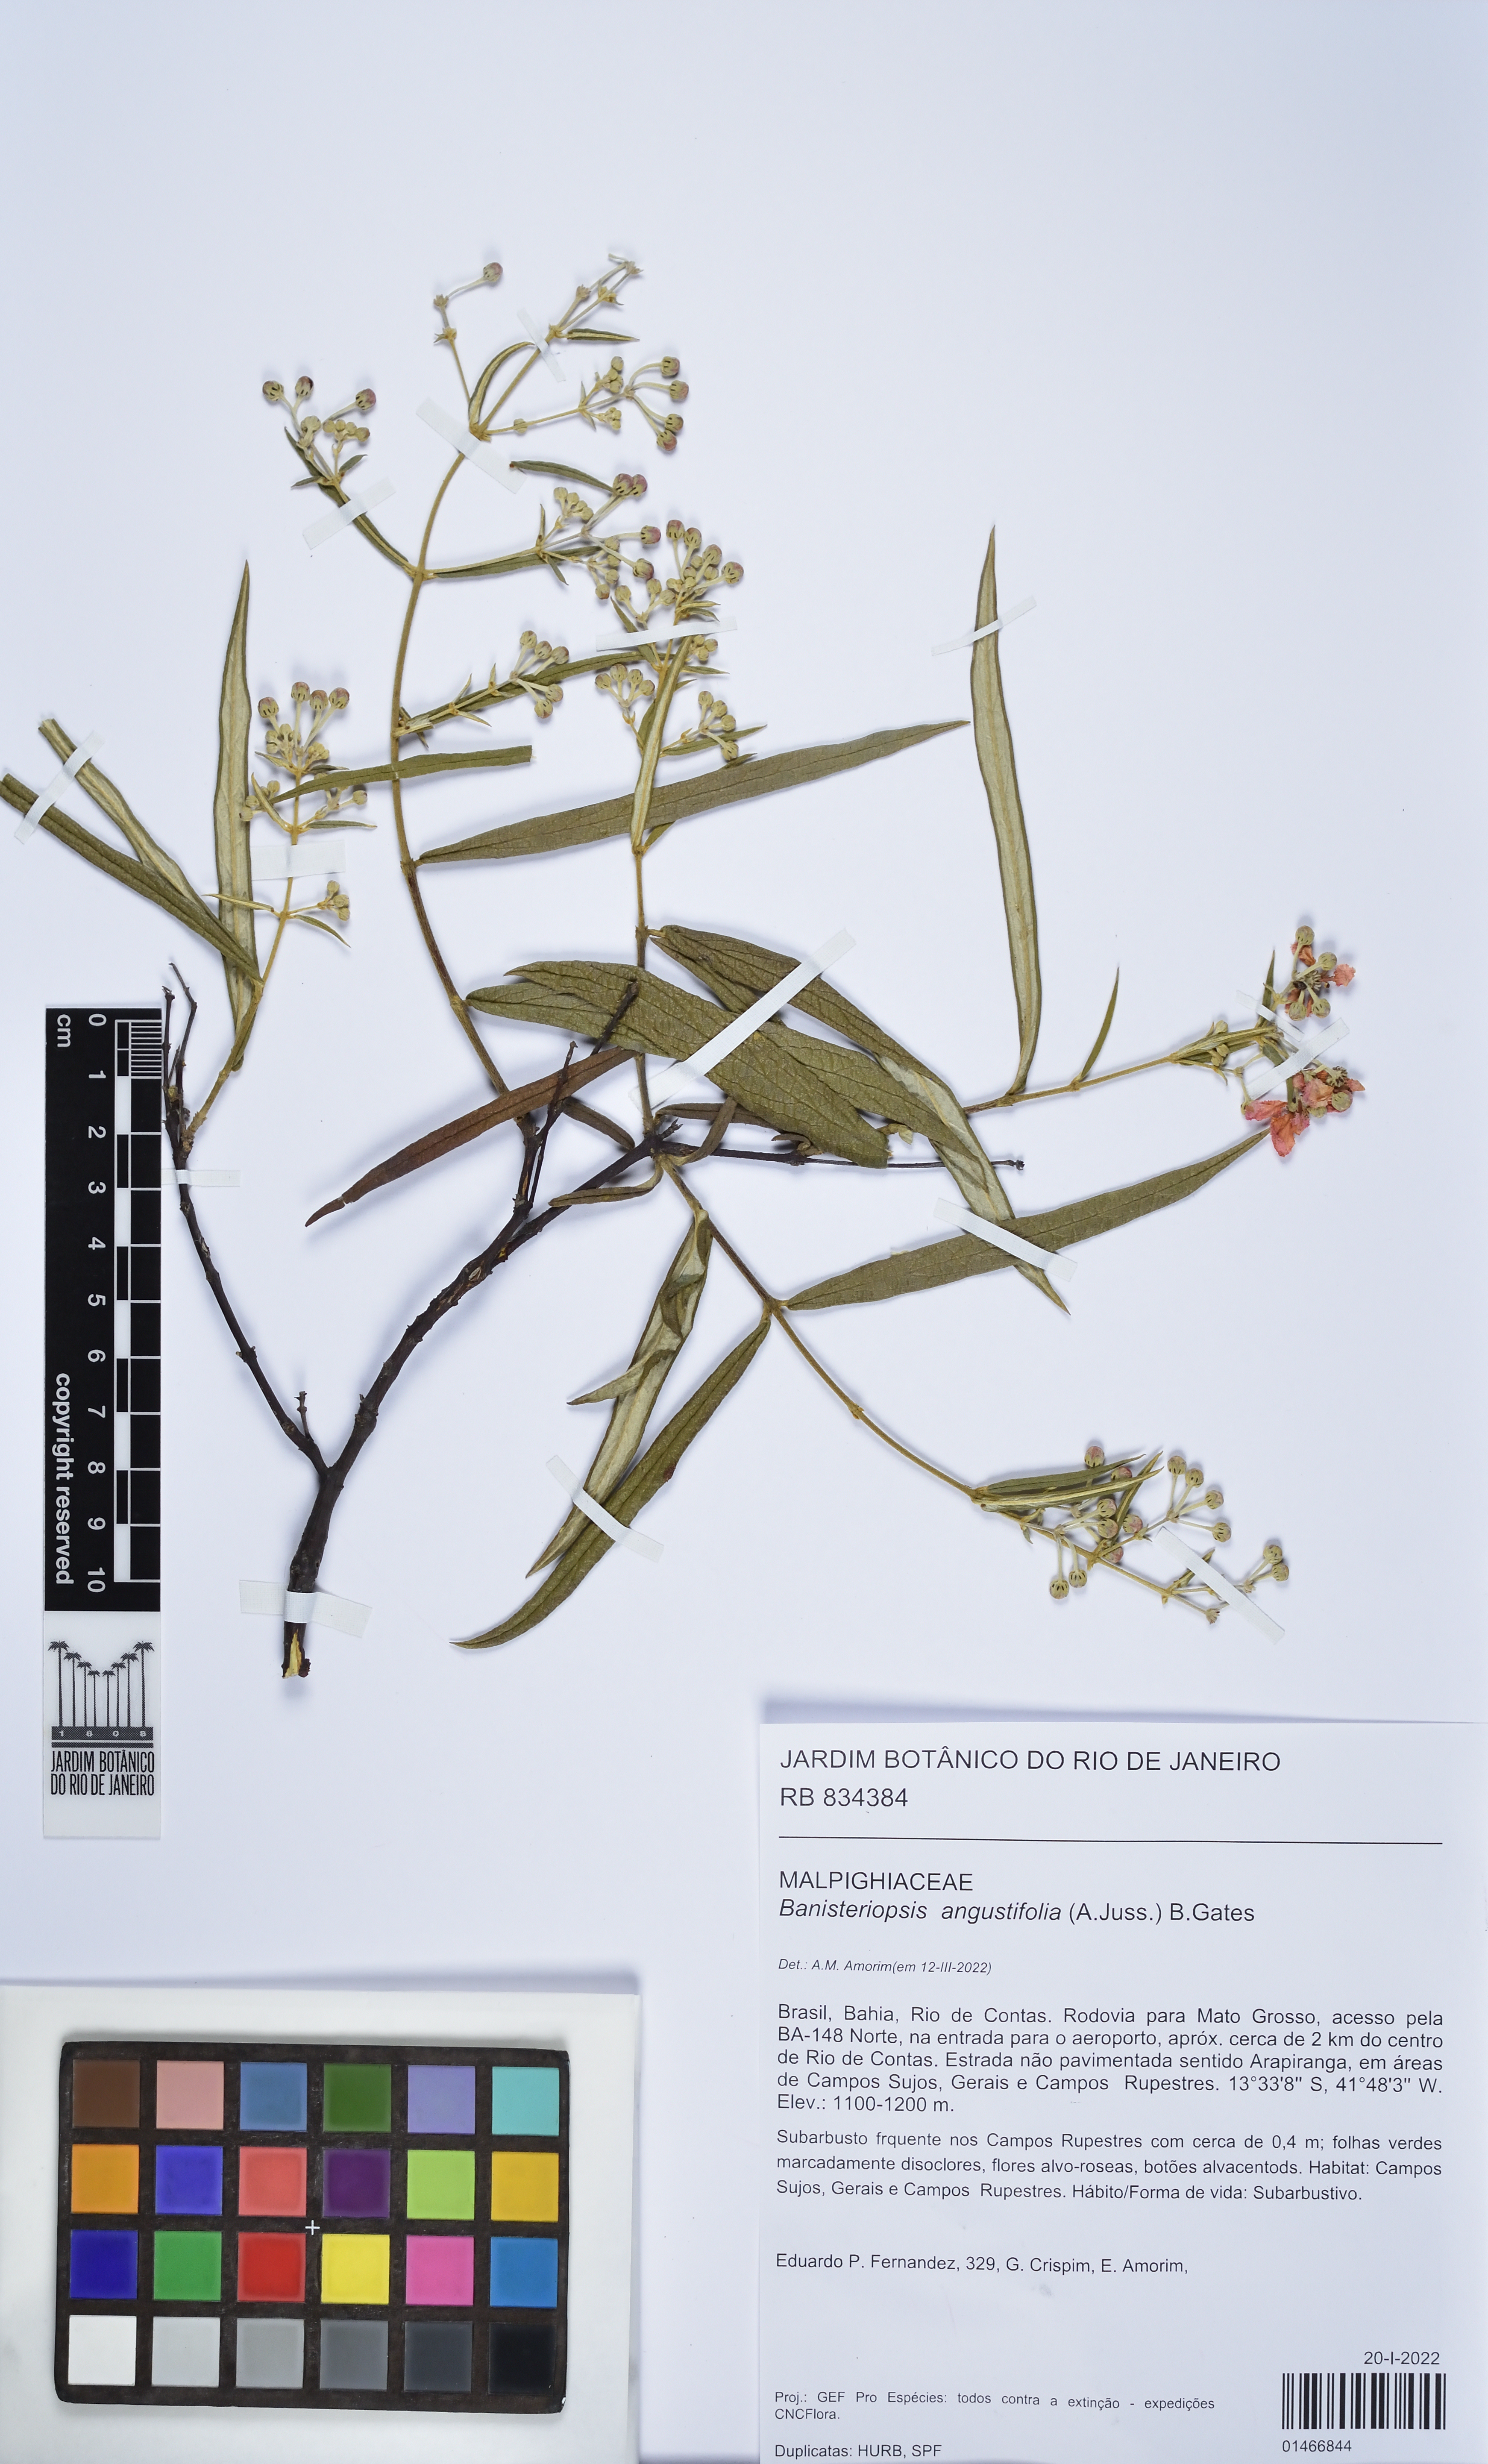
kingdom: Plantae
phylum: Tracheophyta
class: Magnoliopsida
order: Malpighiales
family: Malpighiaceae
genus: Banisteriopsis
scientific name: Banisteriopsis angustifolia
